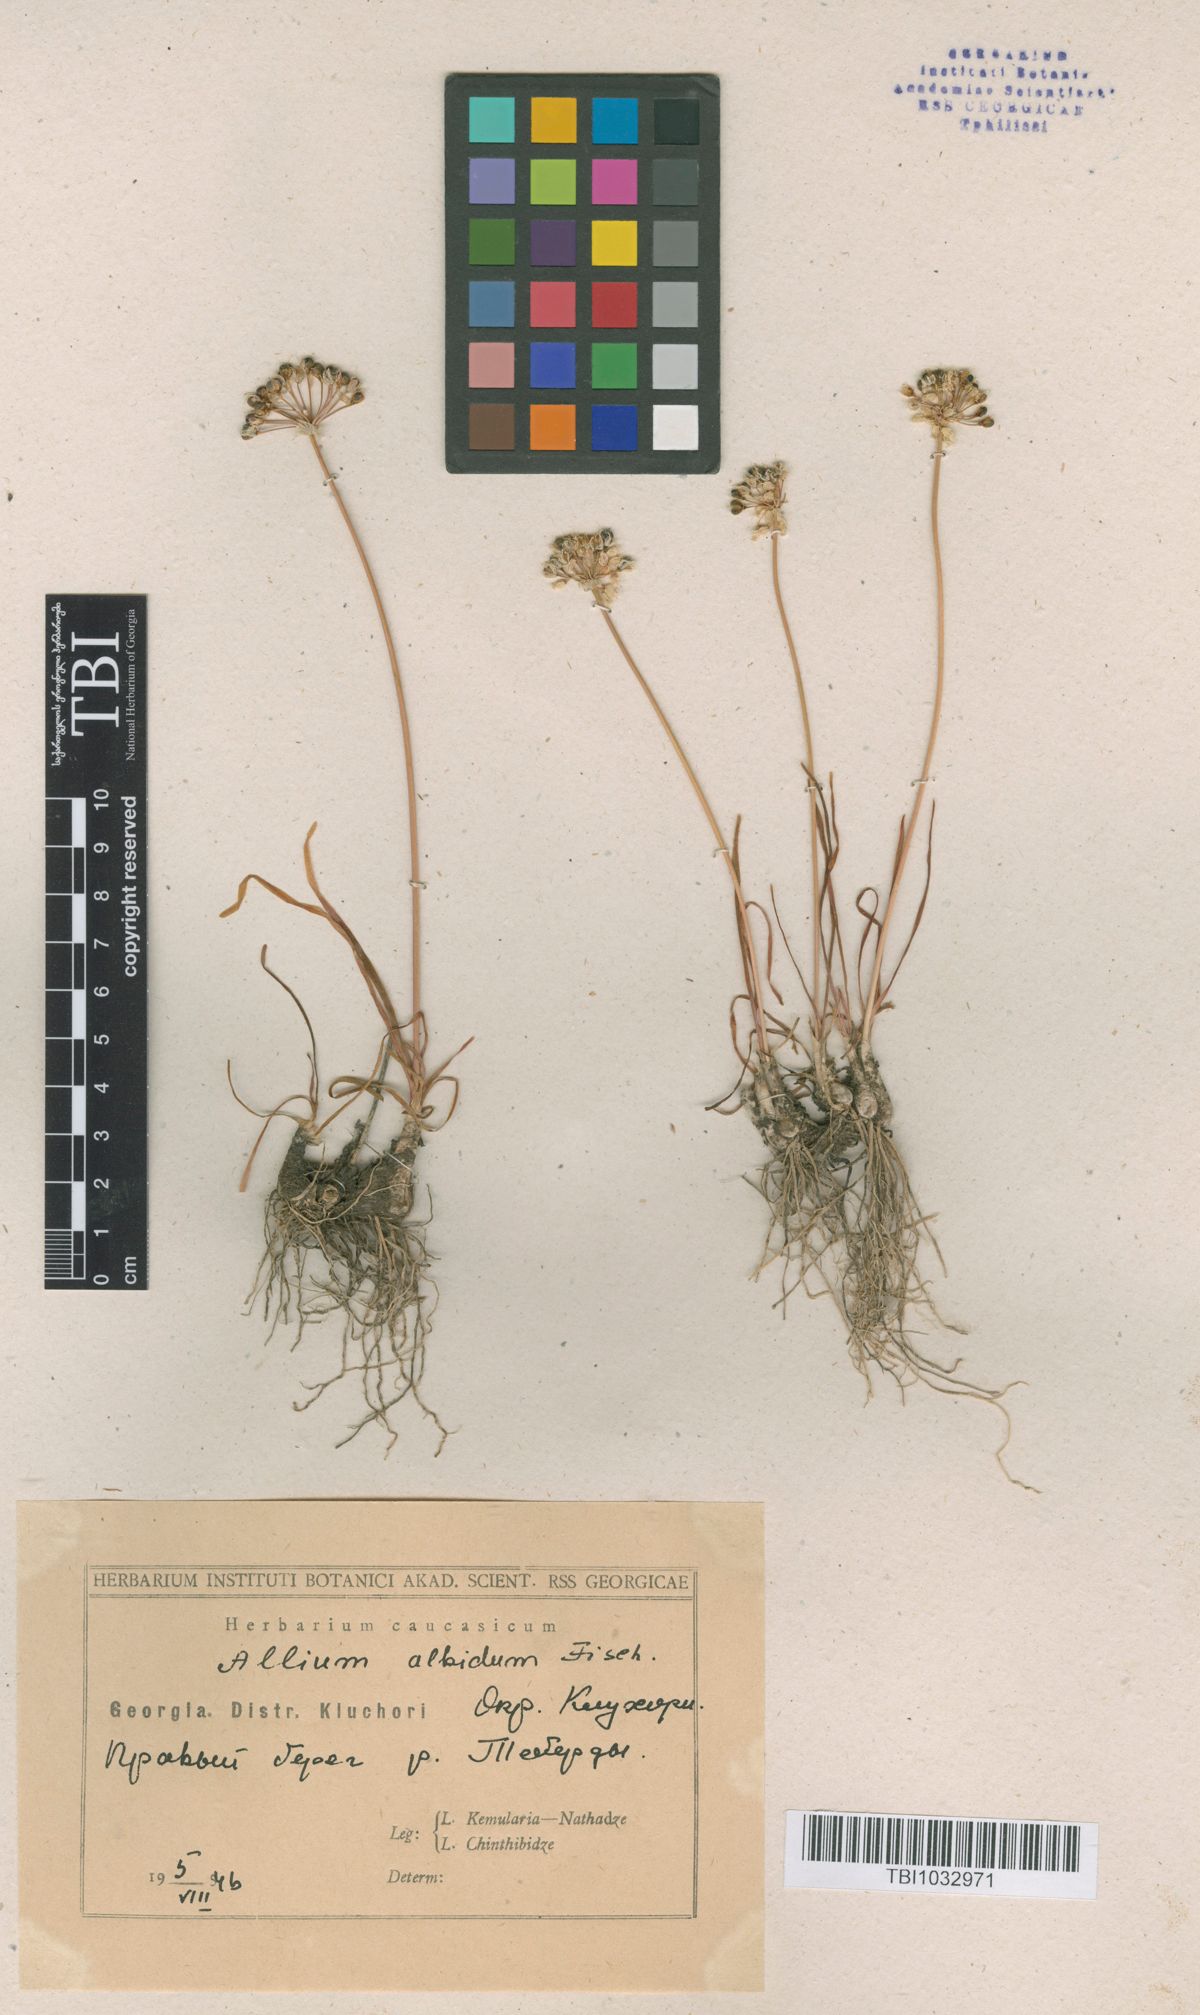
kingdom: Plantae
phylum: Tracheophyta
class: Liliopsida
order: Asparagales
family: Amaryllidaceae
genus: Allium
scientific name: Allium denudatum
